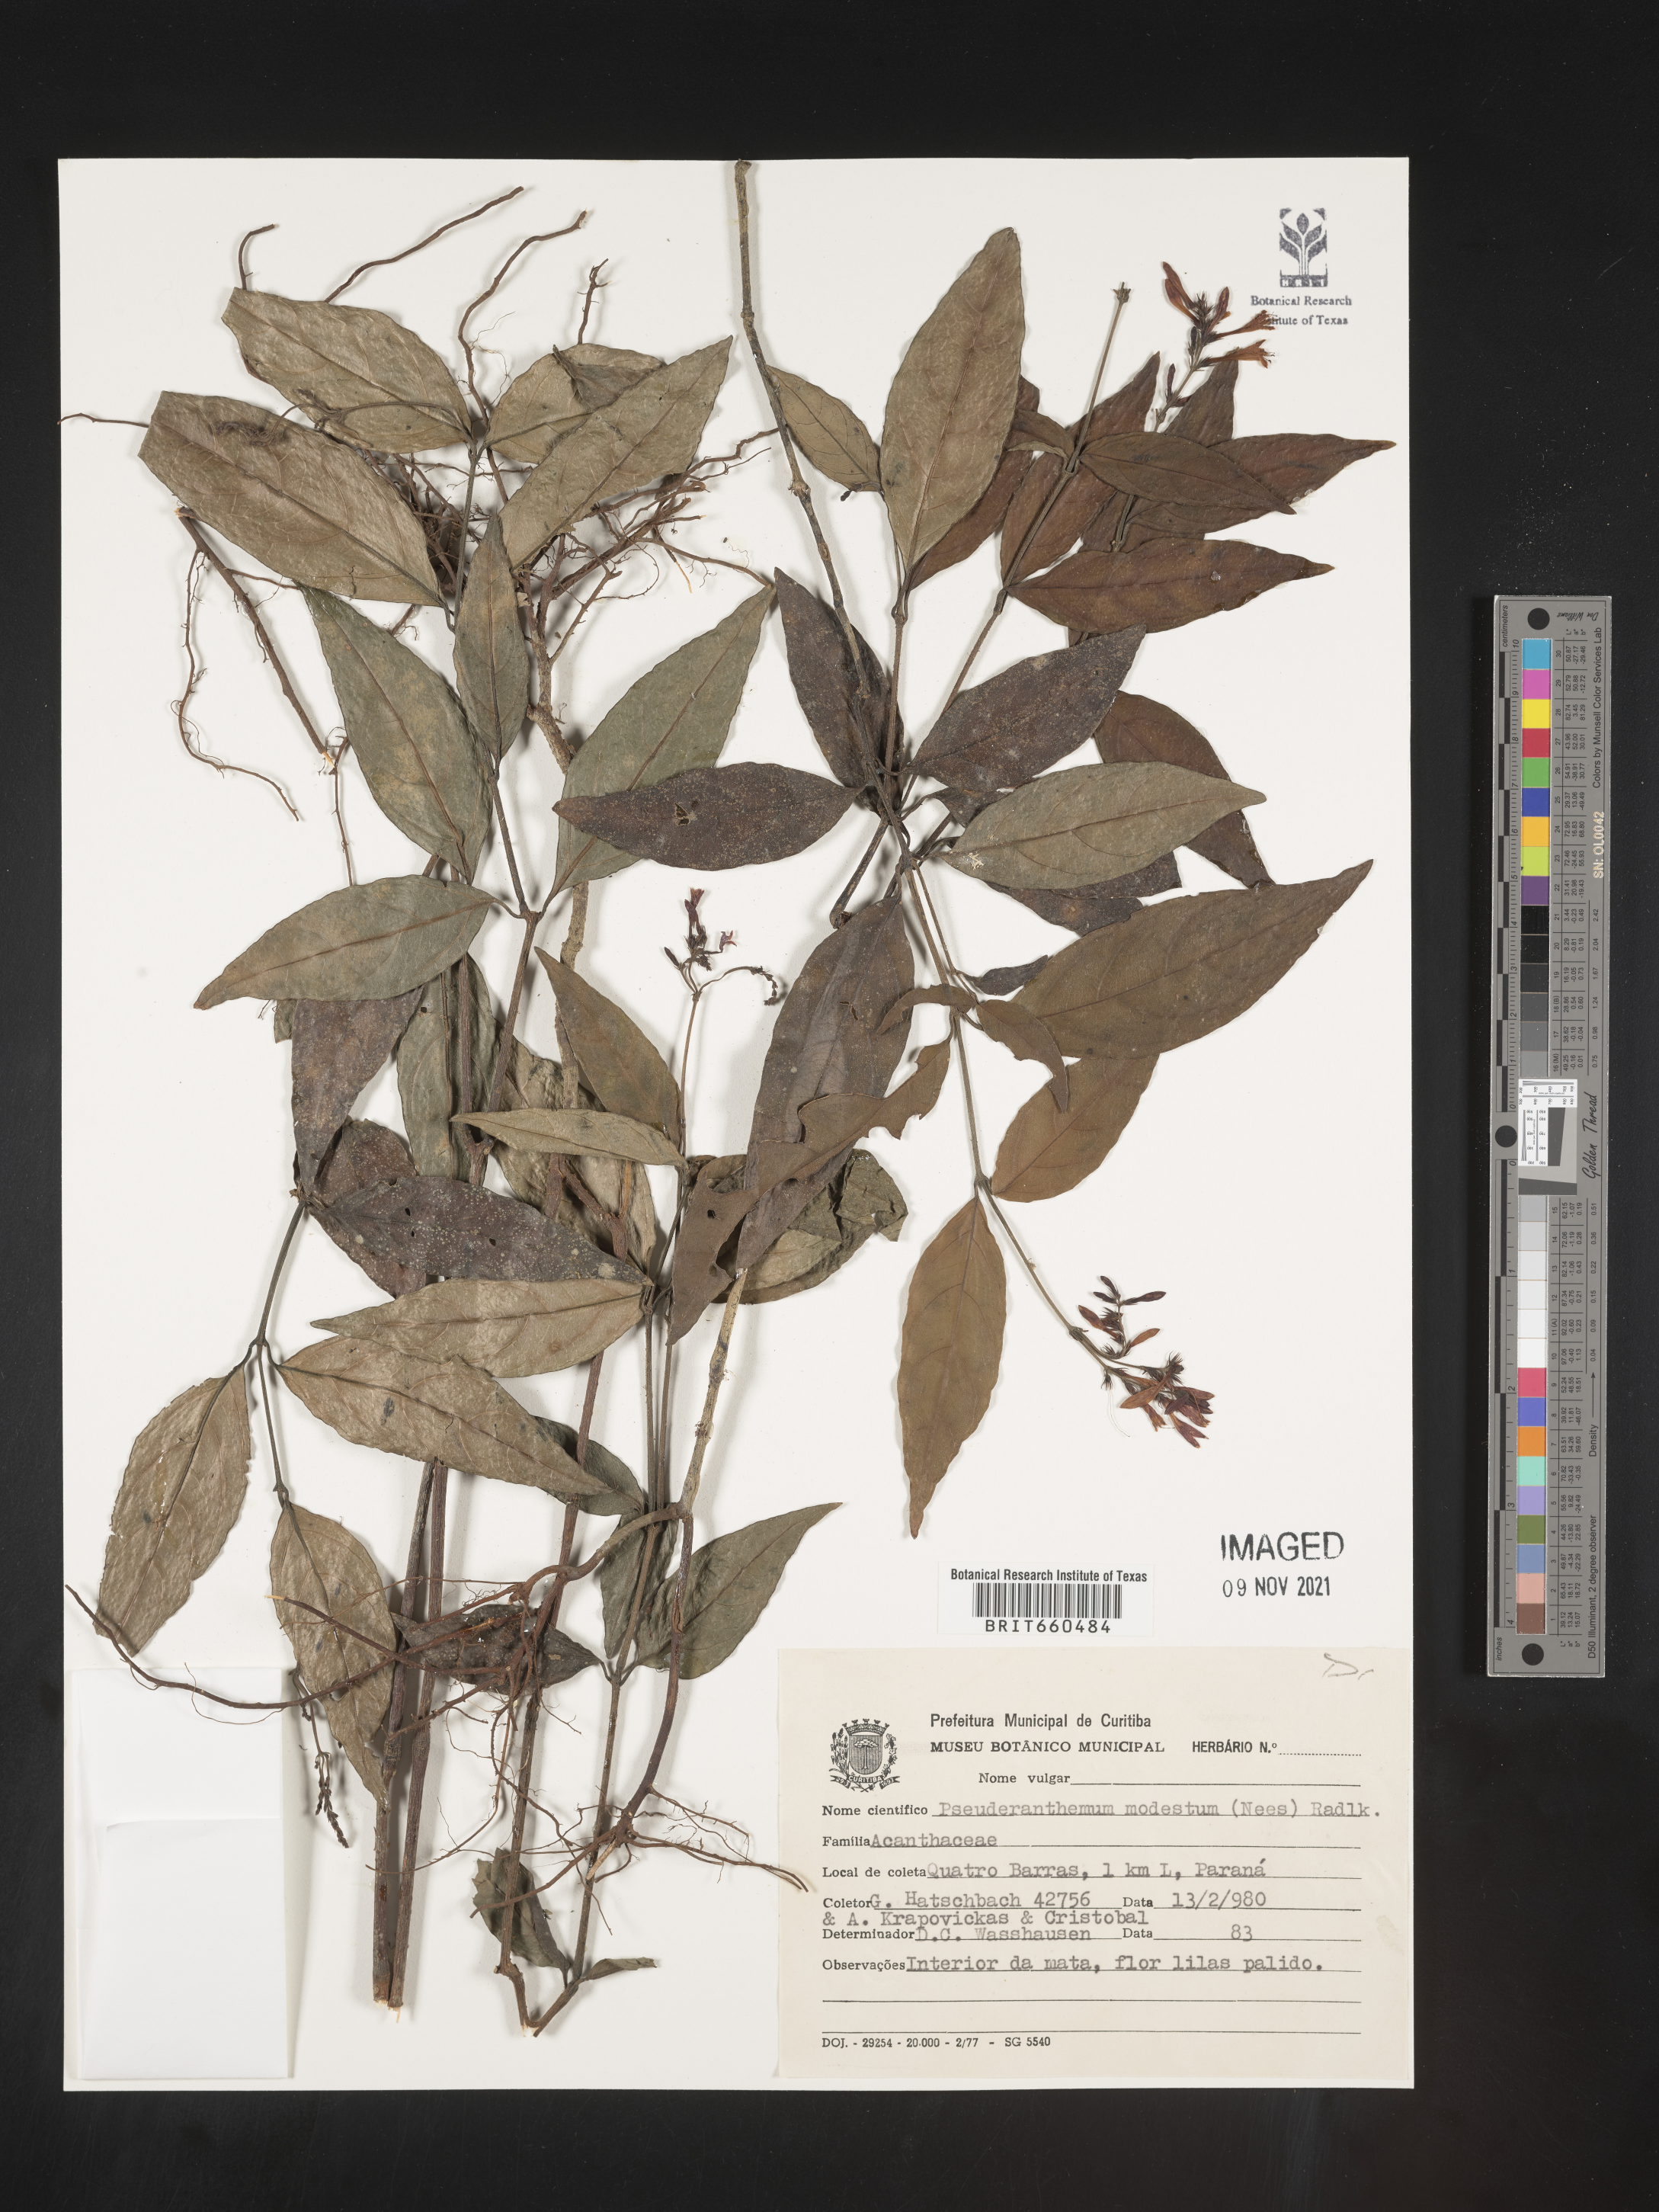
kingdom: Plantae
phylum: Tracheophyta
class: Magnoliopsida
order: Lamiales
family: Acanthaceae
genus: Pseuderanthemum
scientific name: Pseuderanthemum
